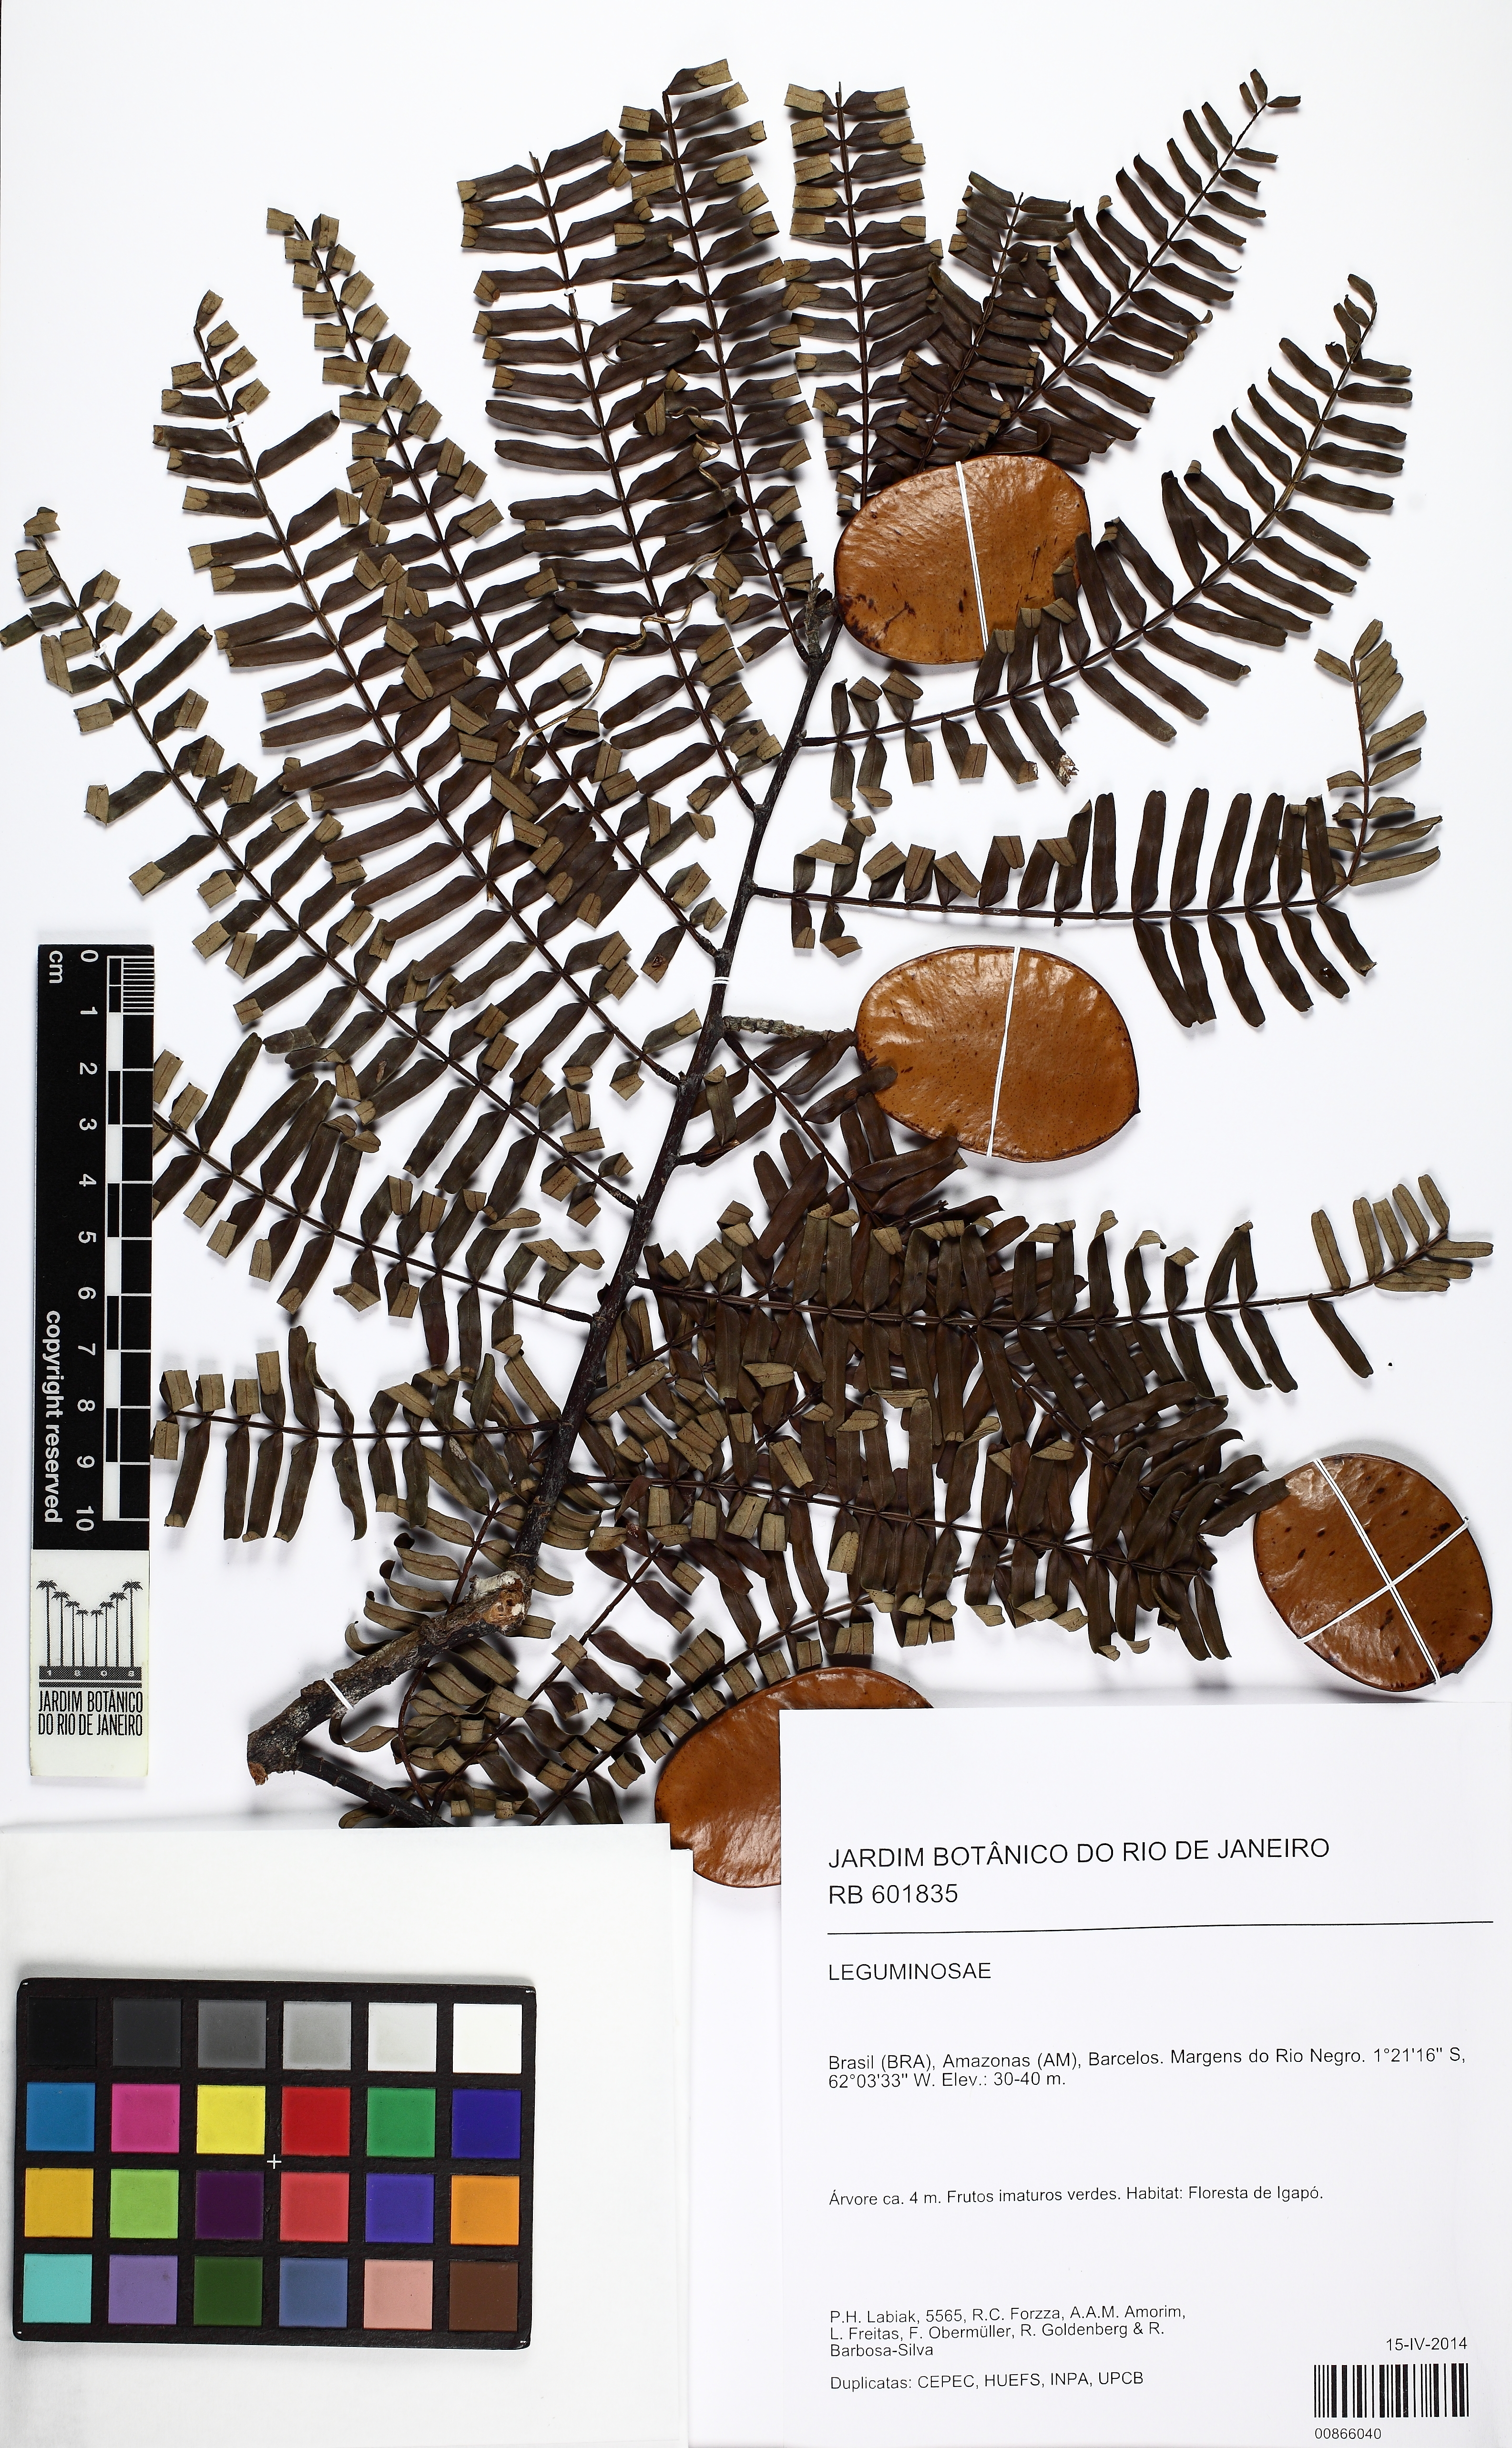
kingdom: Plantae
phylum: Tracheophyta
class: Magnoliopsida
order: Fabales
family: Fabaceae
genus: Macrolobium
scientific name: Macrolobium
